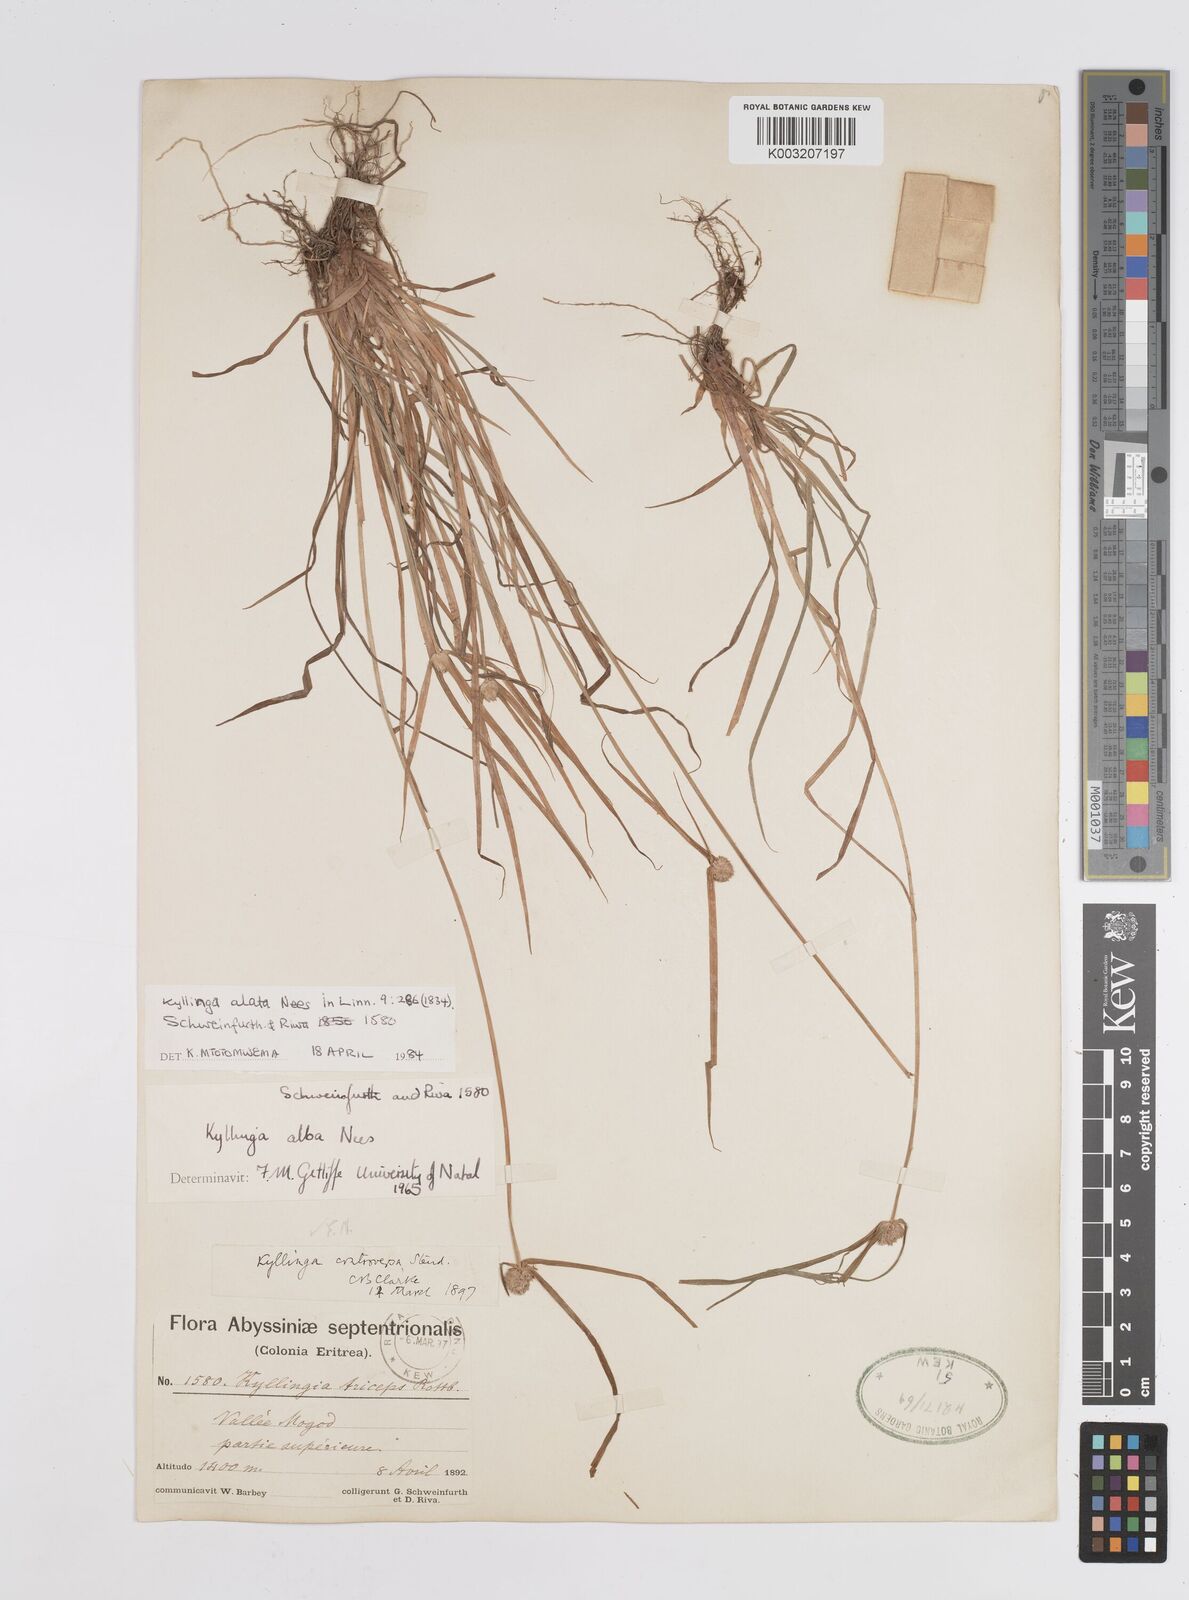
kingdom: Plantae
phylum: Tracheophyta
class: Liliopsida
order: Poales
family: Cyperaceae
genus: Cyperus
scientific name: Cyperus controversus
